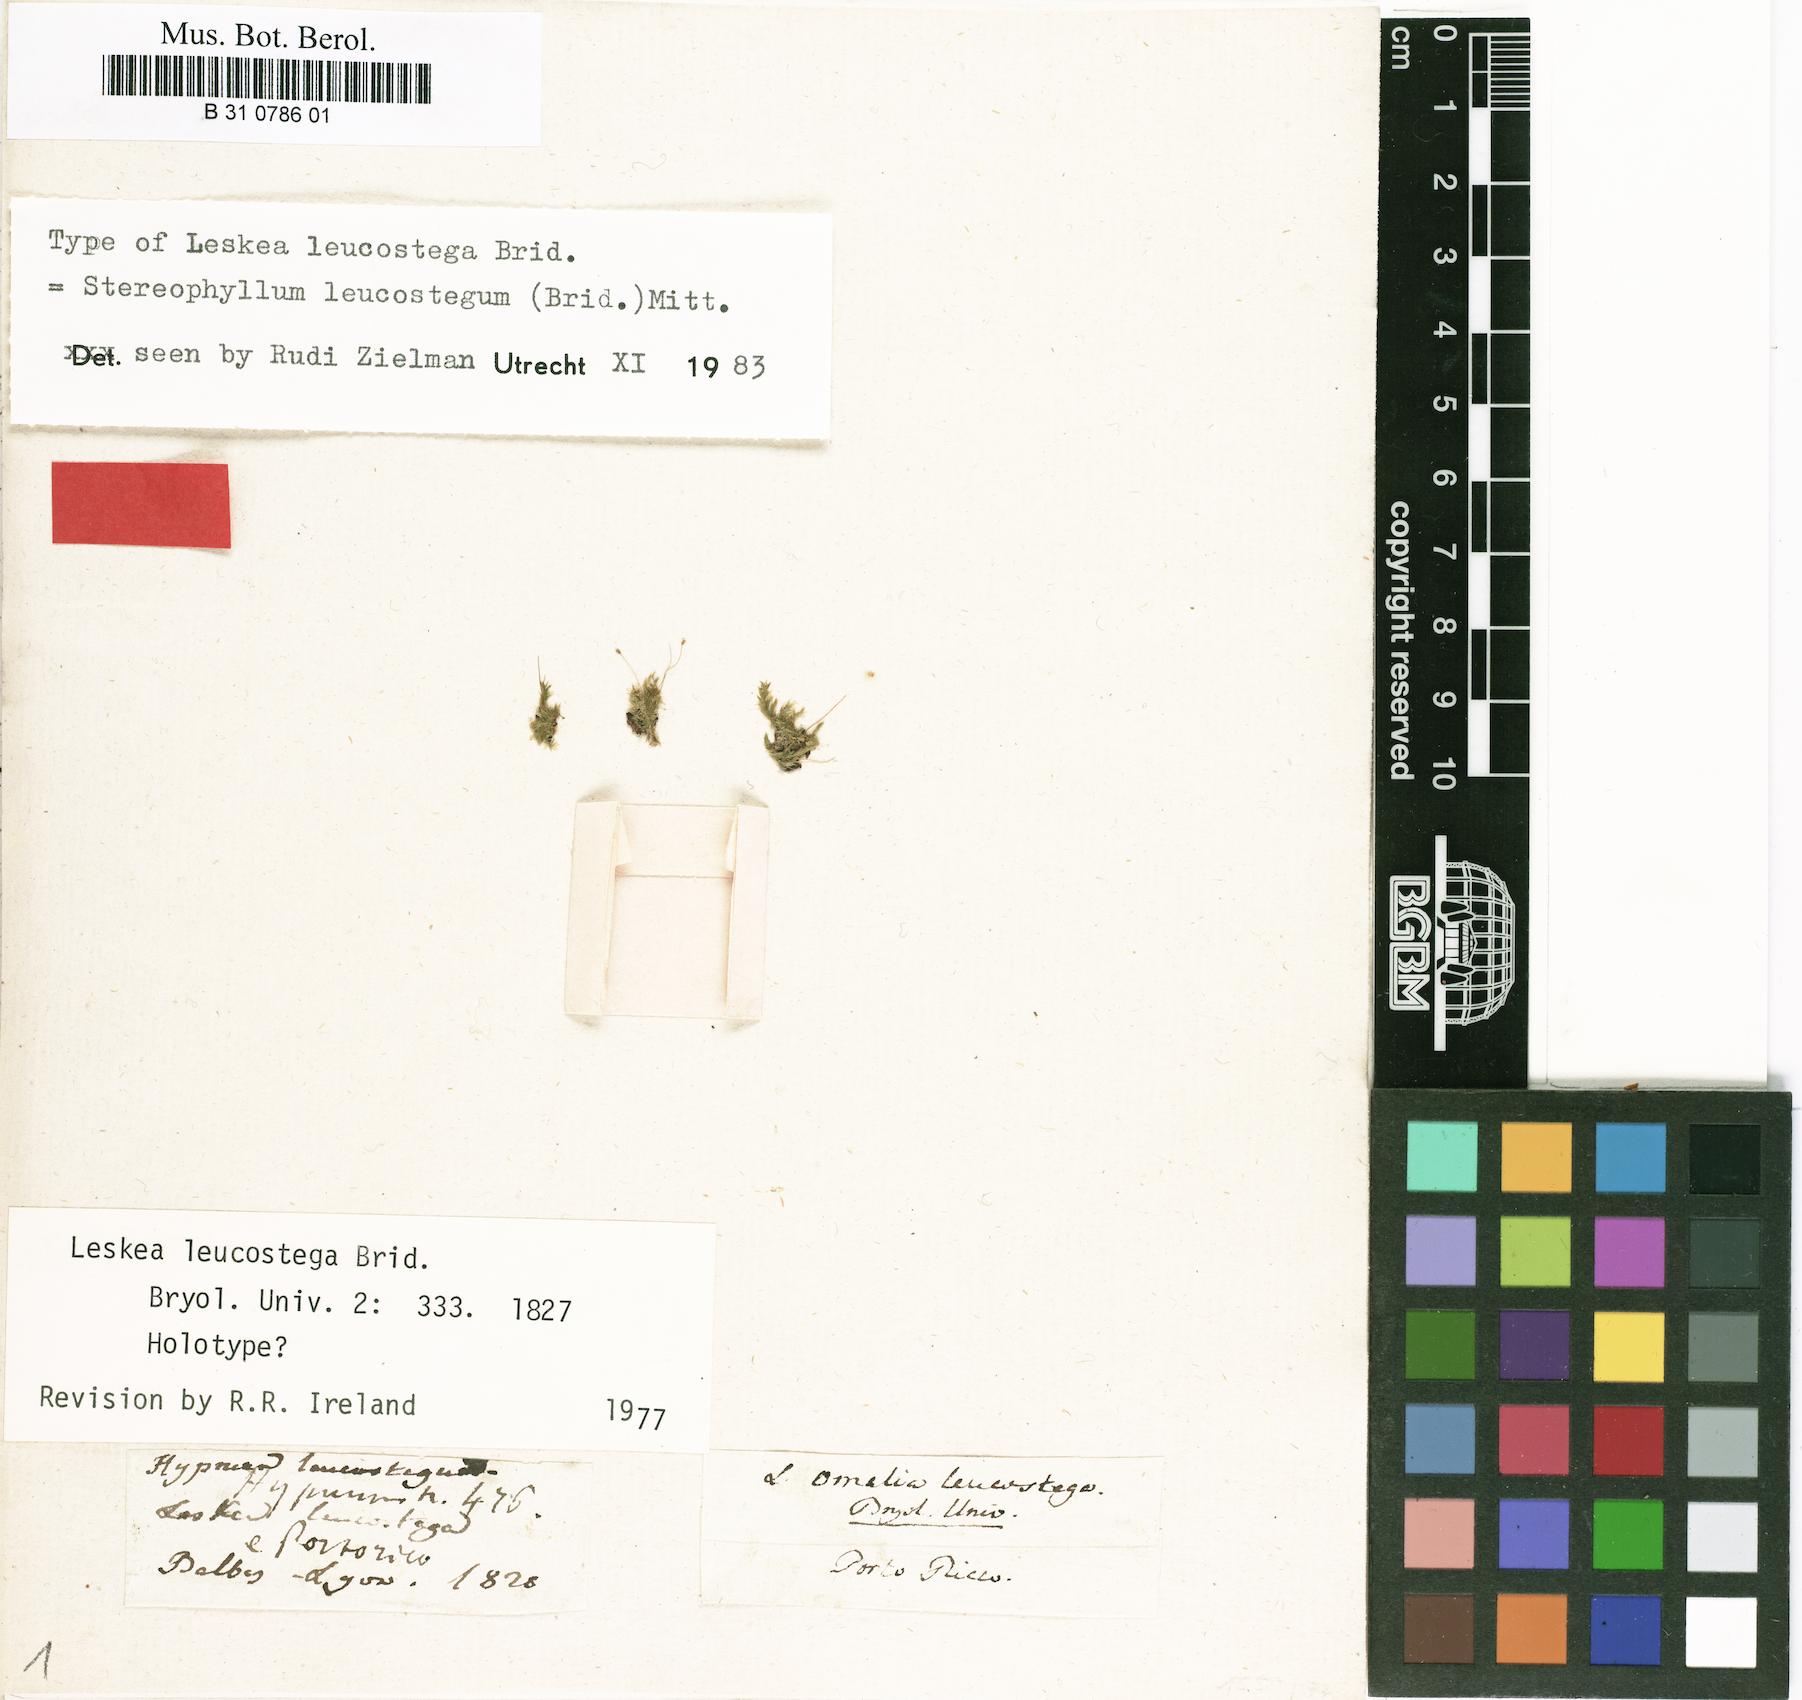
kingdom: Plantae
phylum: Bryophyta
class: Bryopsida
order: Hypnales
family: Neckeraceae
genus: Omalia
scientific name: Omalia
